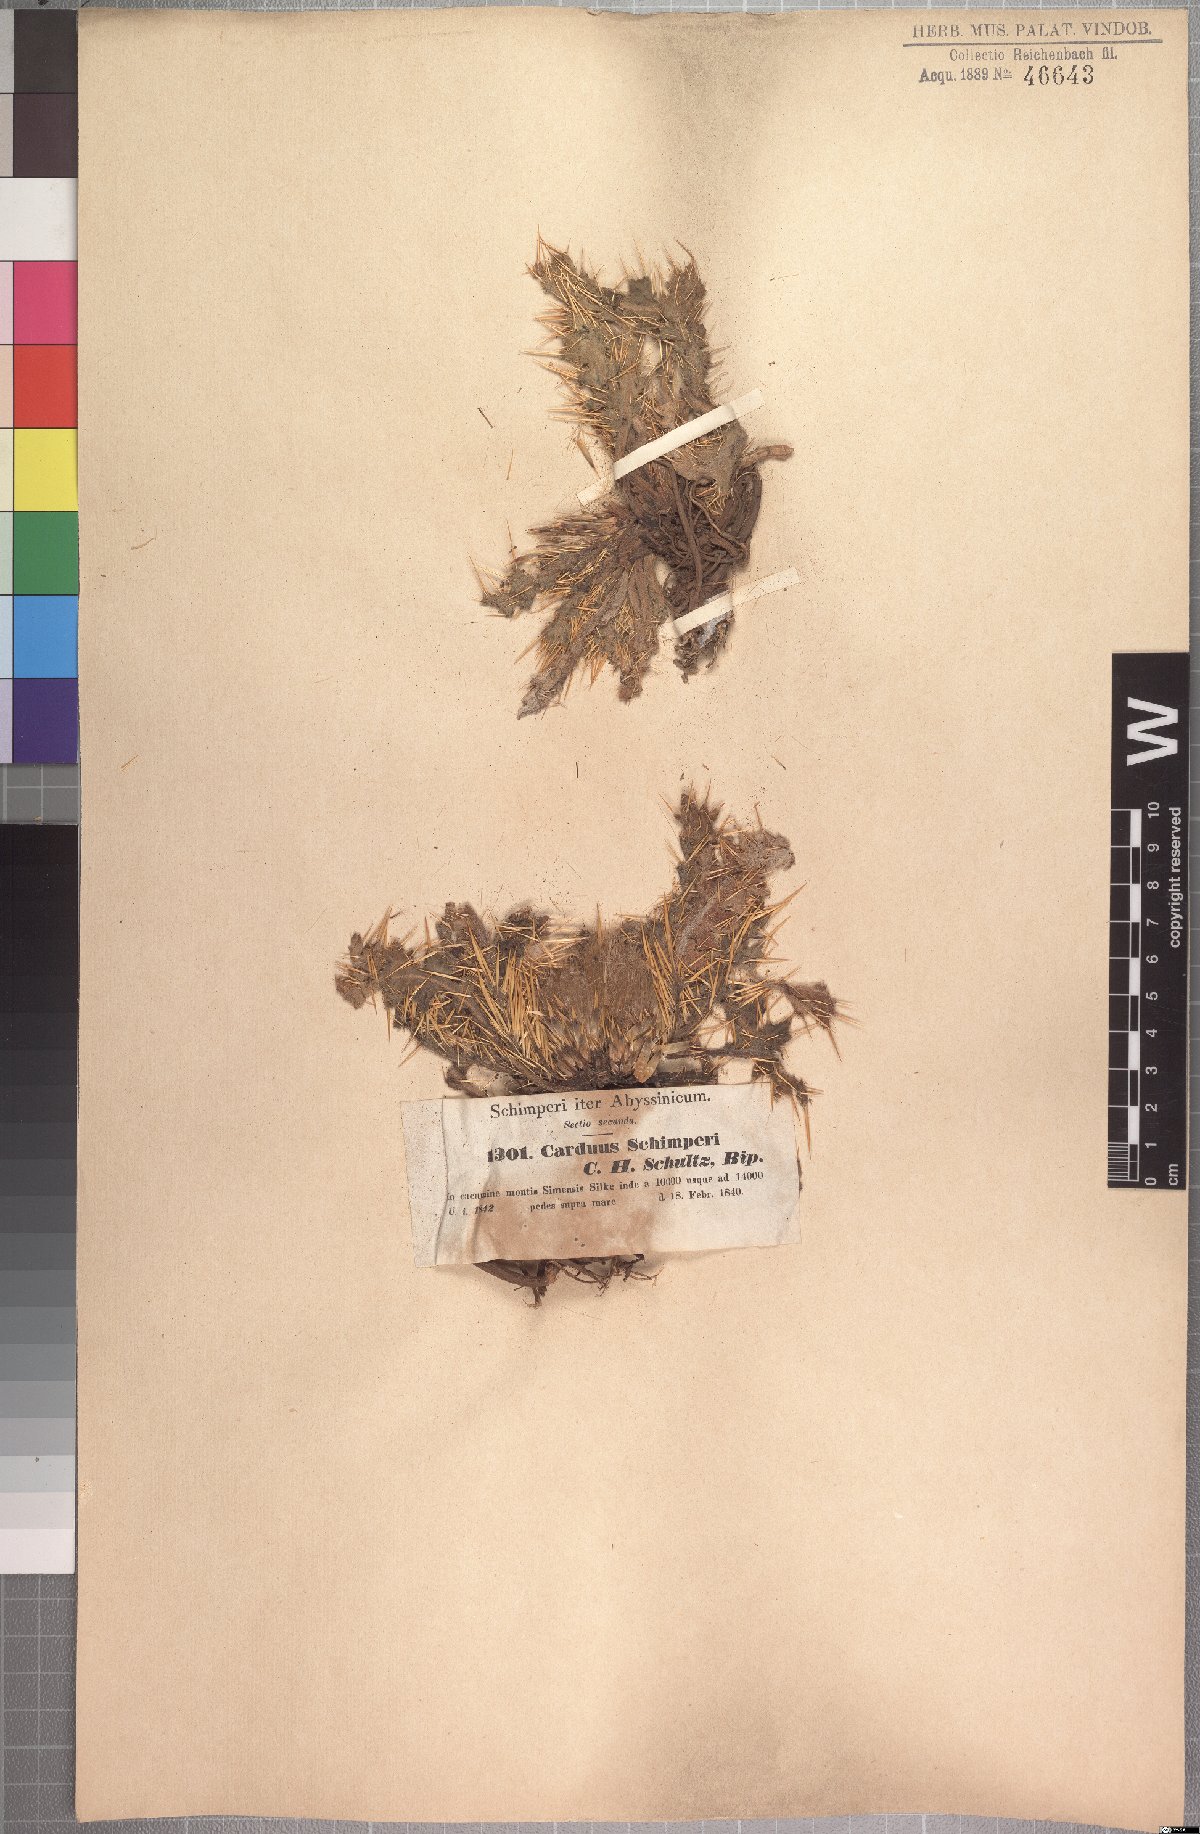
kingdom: Plantae
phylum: Tracheophyta
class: Magnoliopsida
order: Asterales
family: Asteraceae
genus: Carduus
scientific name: Carduus schimperi
